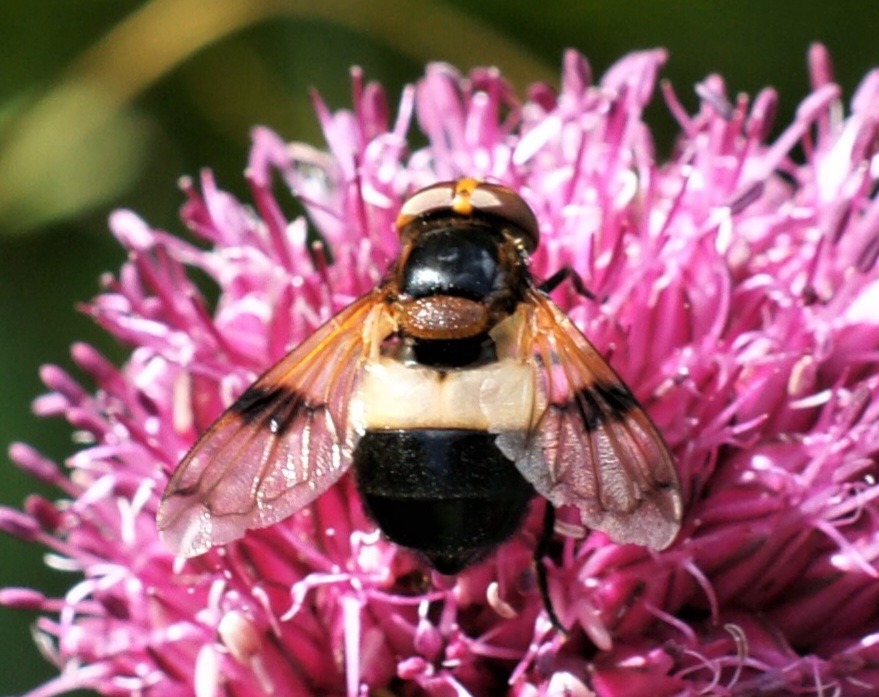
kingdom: Animalia
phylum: Arthropoda
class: Insecta
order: Diptera
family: Syrphidae
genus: Volucella
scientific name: Volucella pellucens
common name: Hvidbåndet humlesvirreflue
